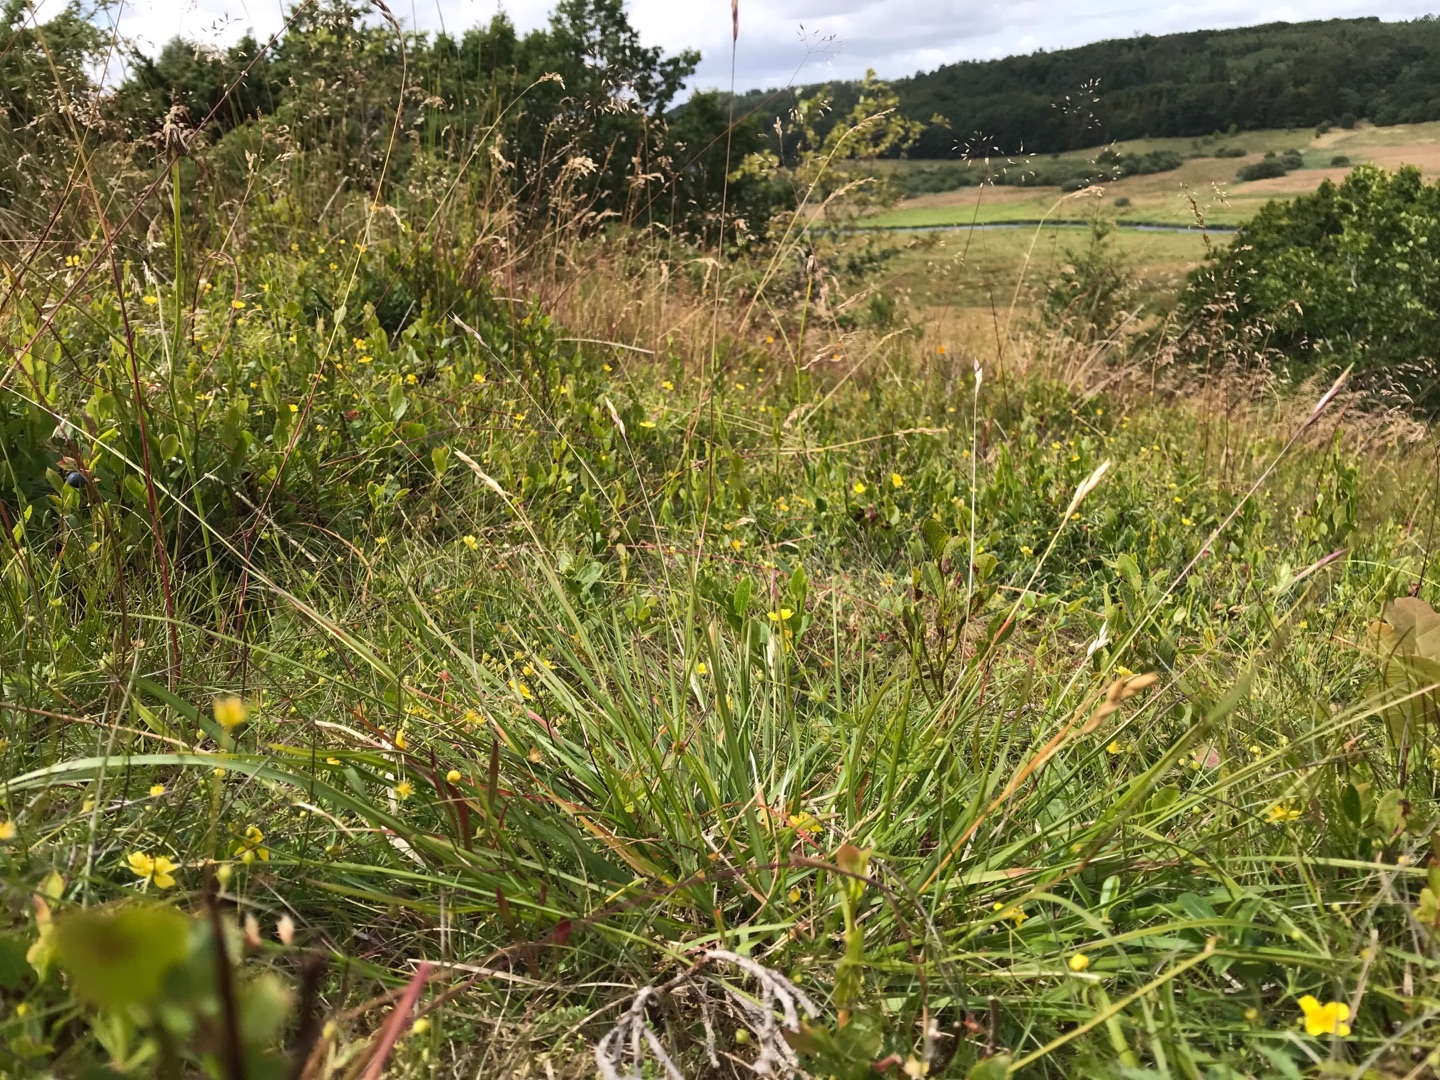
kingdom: Plantae
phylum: Tracheophyta
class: Liliopsida
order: Poales
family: Poaceae
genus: Danthonia
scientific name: Danthonia decumbens
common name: Tandbælg
